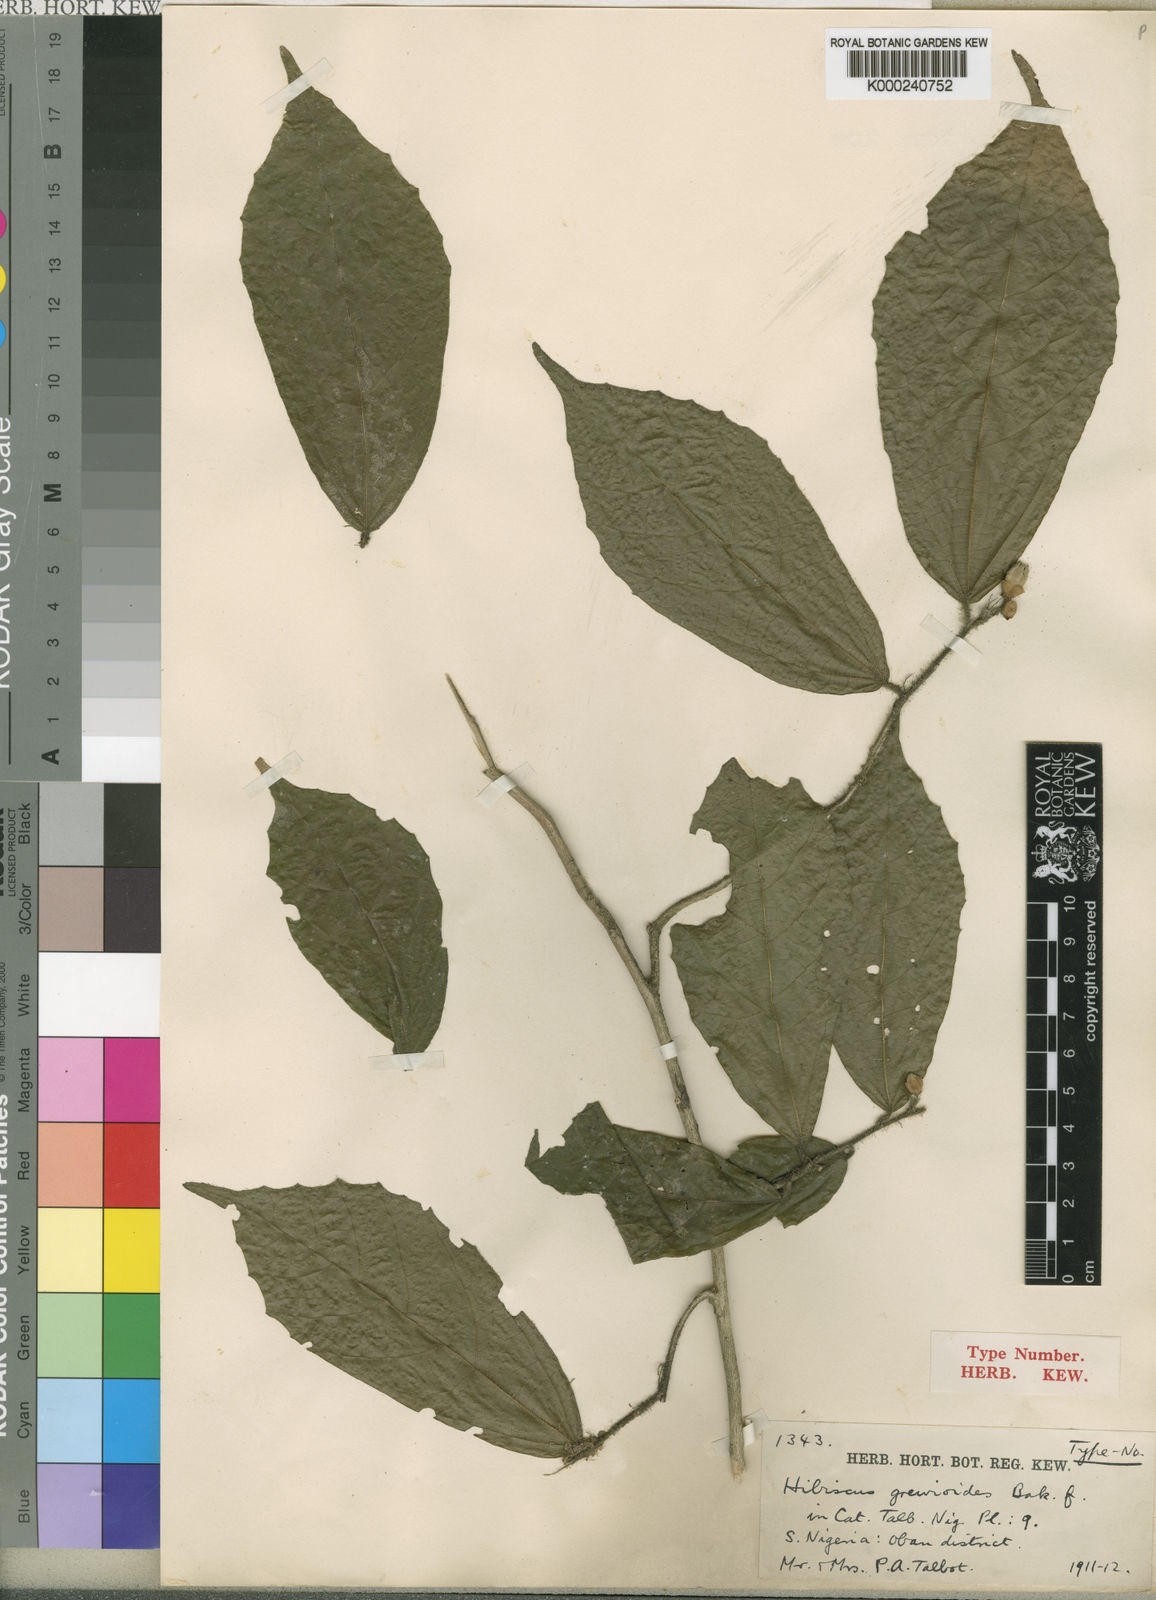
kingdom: Plantae
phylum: Tracheophyta
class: Magnoliopsida
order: Malvales
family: Malvaceae
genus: Hibiscus
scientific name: Hibiscus grewioides
